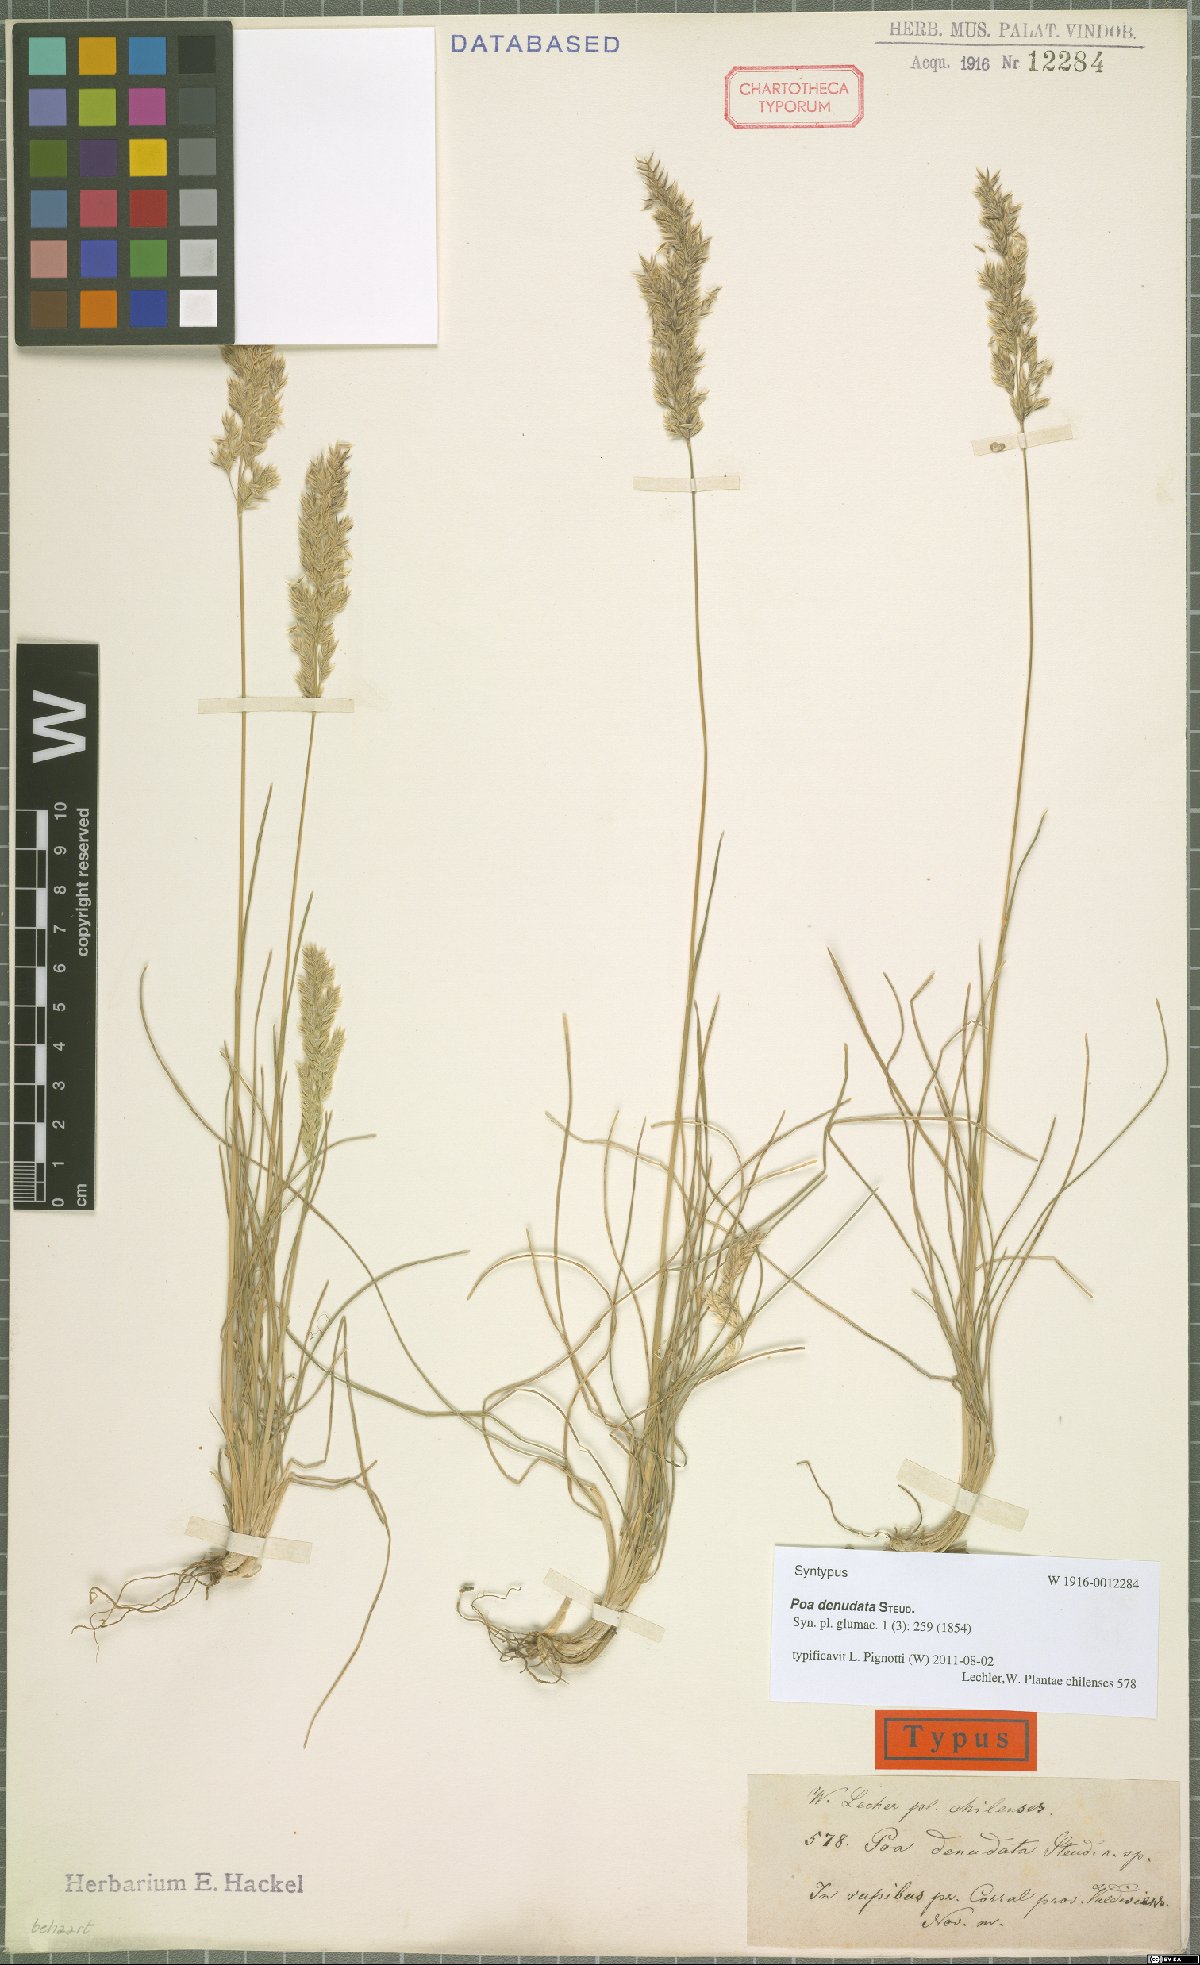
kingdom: Plantae
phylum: Tracheophyta
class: Liliopsida
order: Poales
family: Poaceae
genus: Poa
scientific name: Poa denudata
